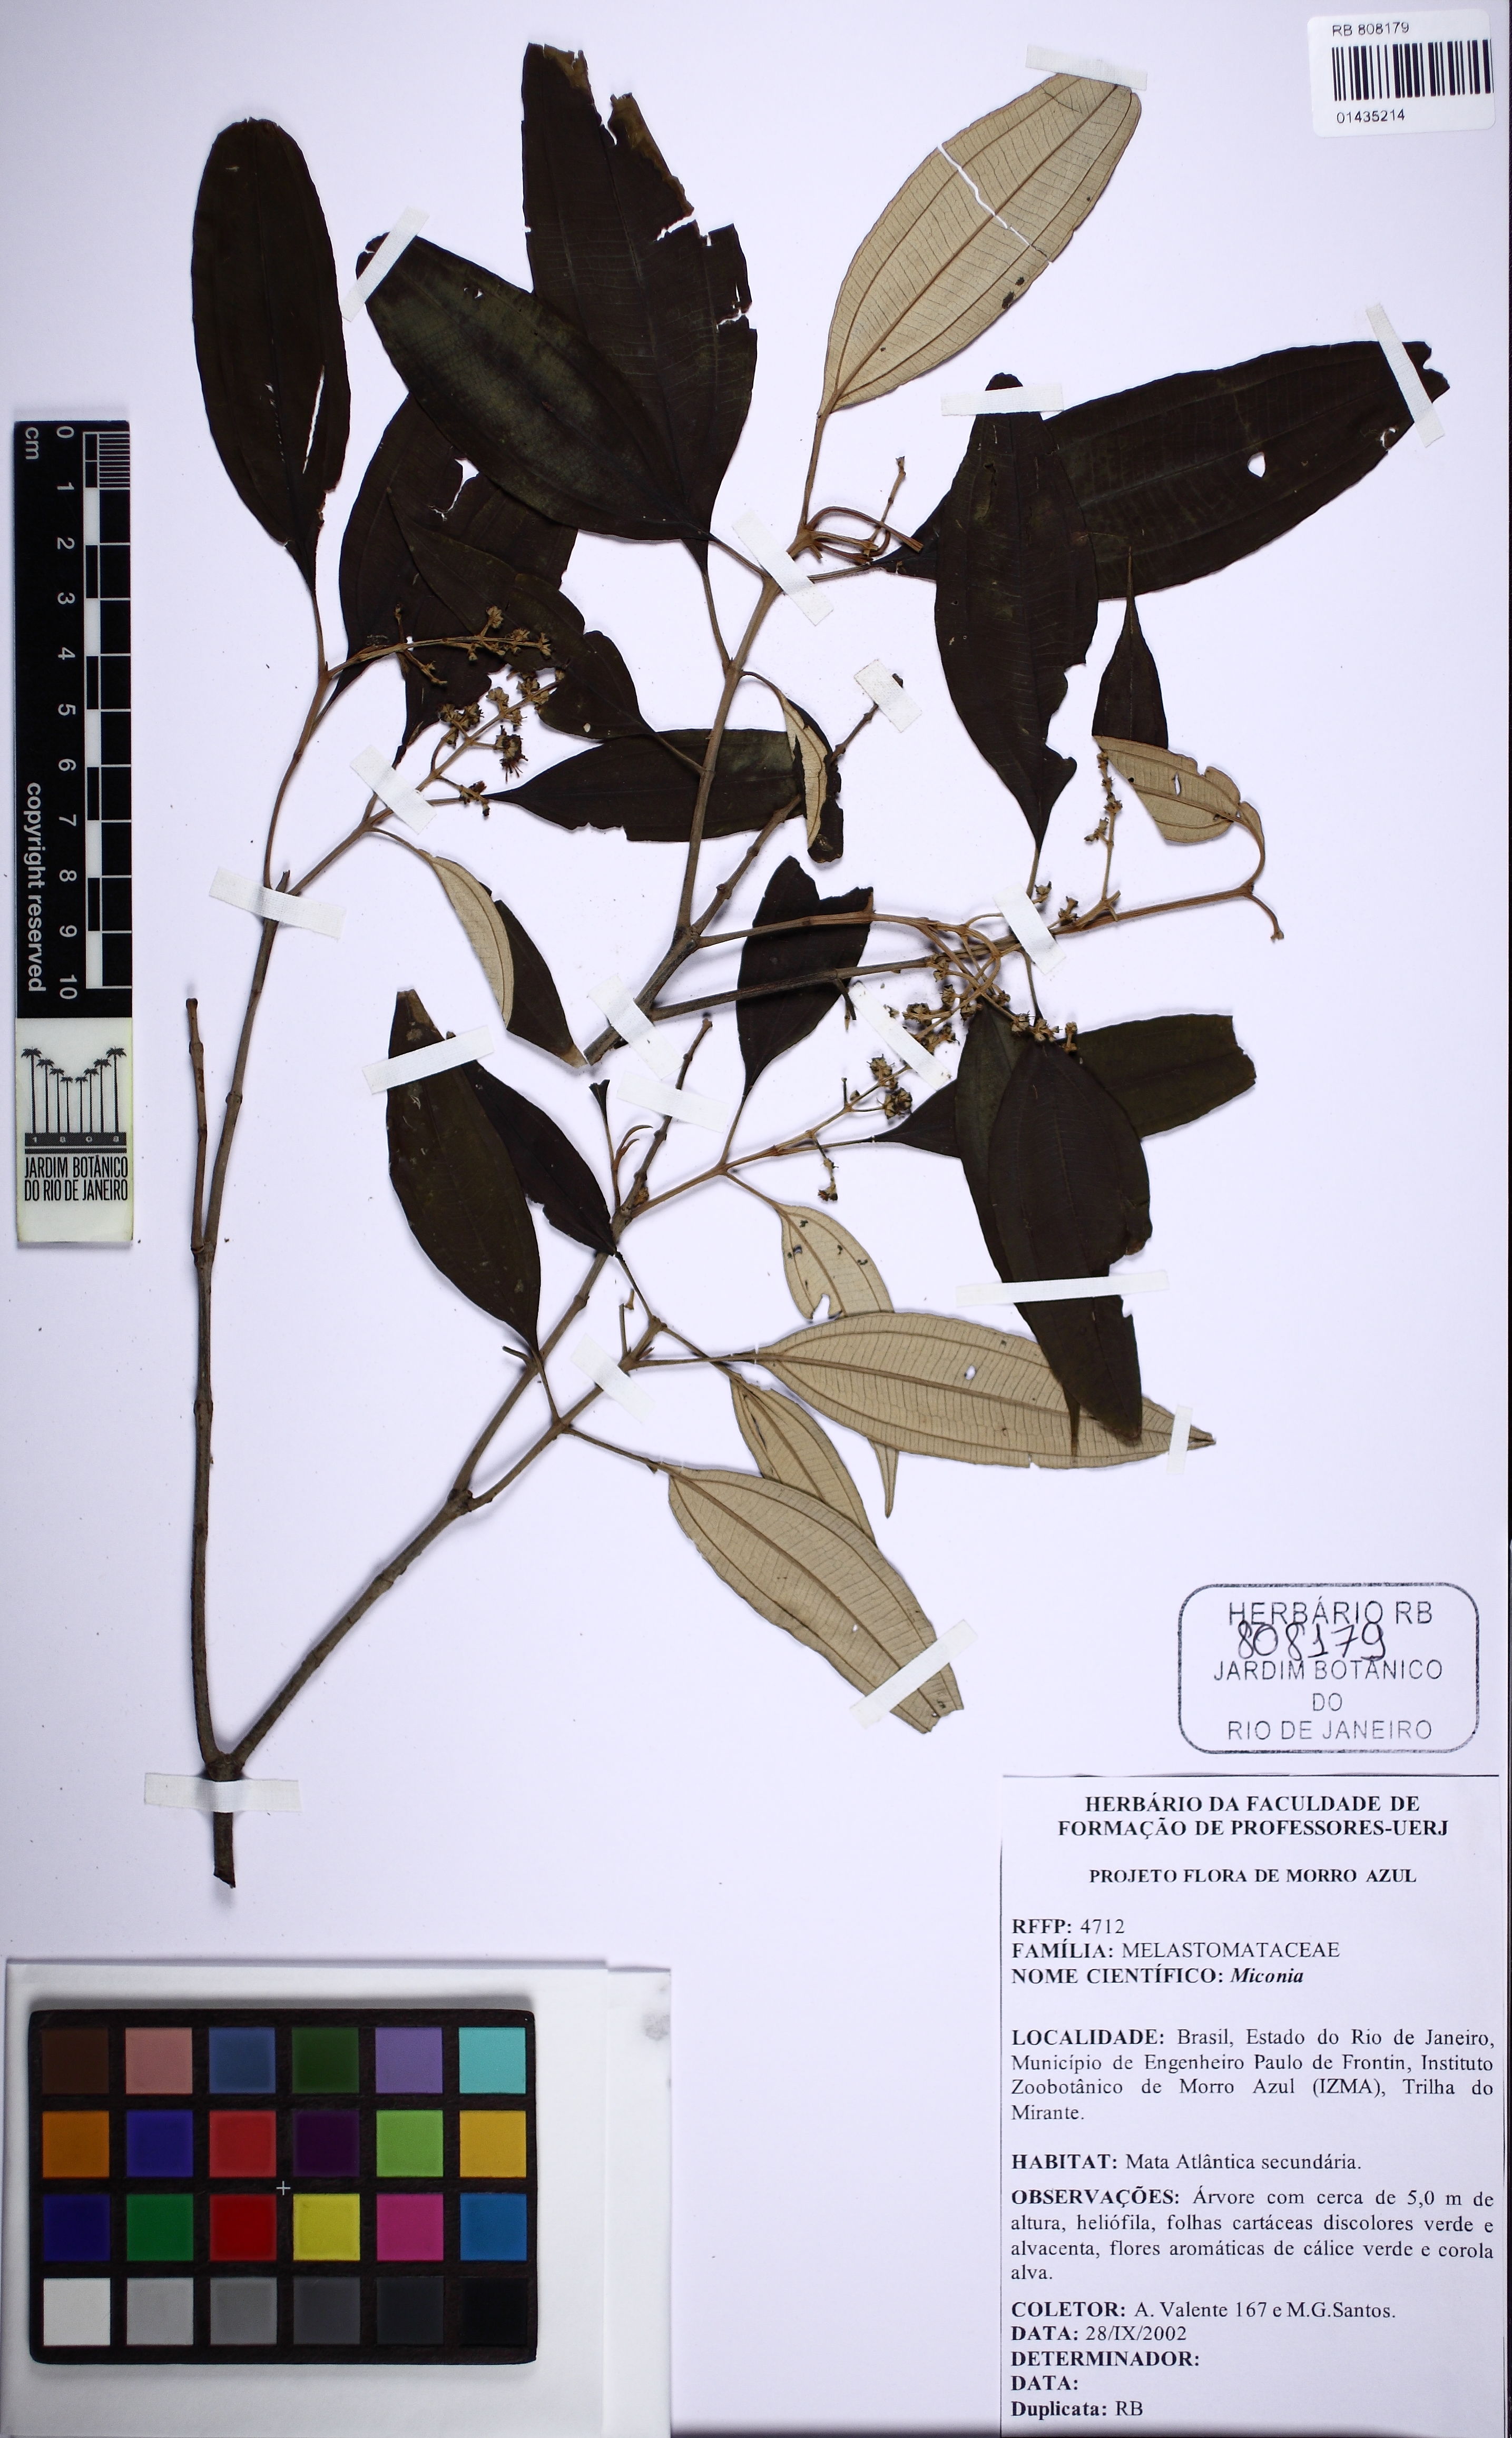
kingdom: Plantae
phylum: Tracheophyta
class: Magnoliopsida
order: Myrtales
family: Melastomataceae
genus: Miconia
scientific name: Miconia
